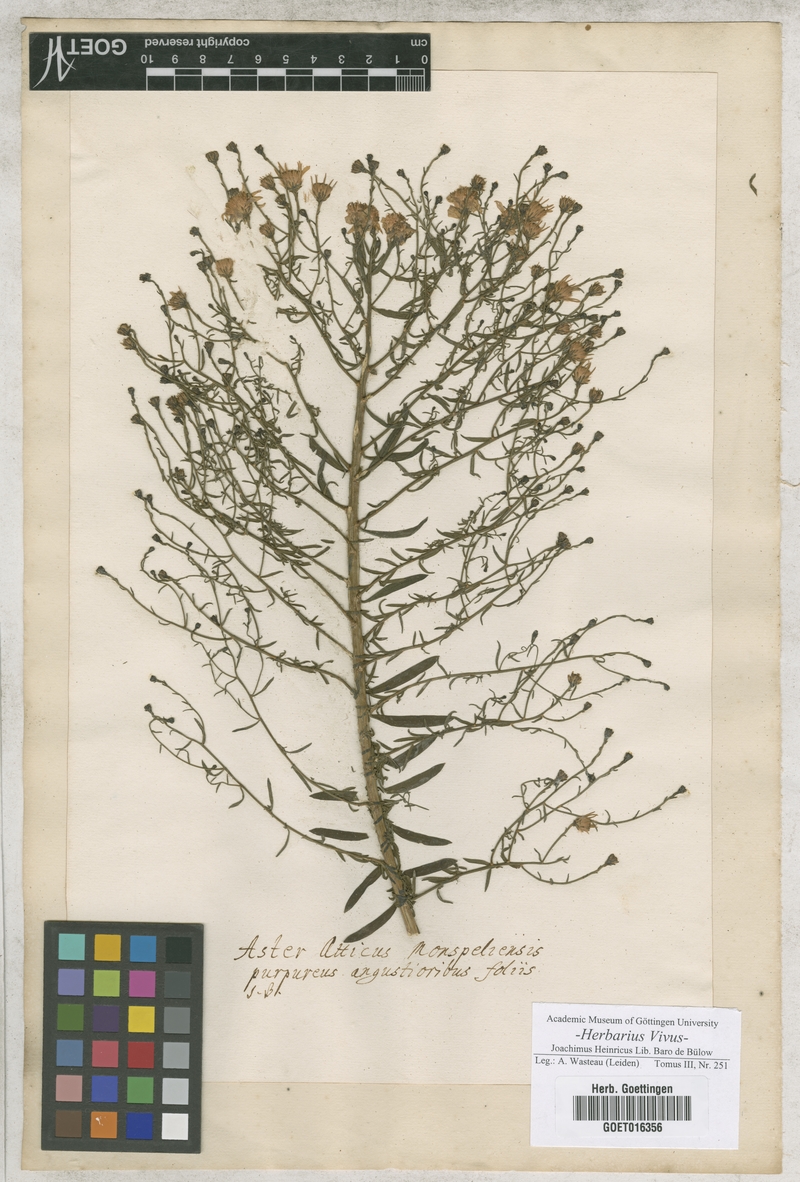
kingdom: Plantae
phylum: Tracheophyta
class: Magnoliopsida
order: Asterales
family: Asteraceae
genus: Aster
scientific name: Aster
